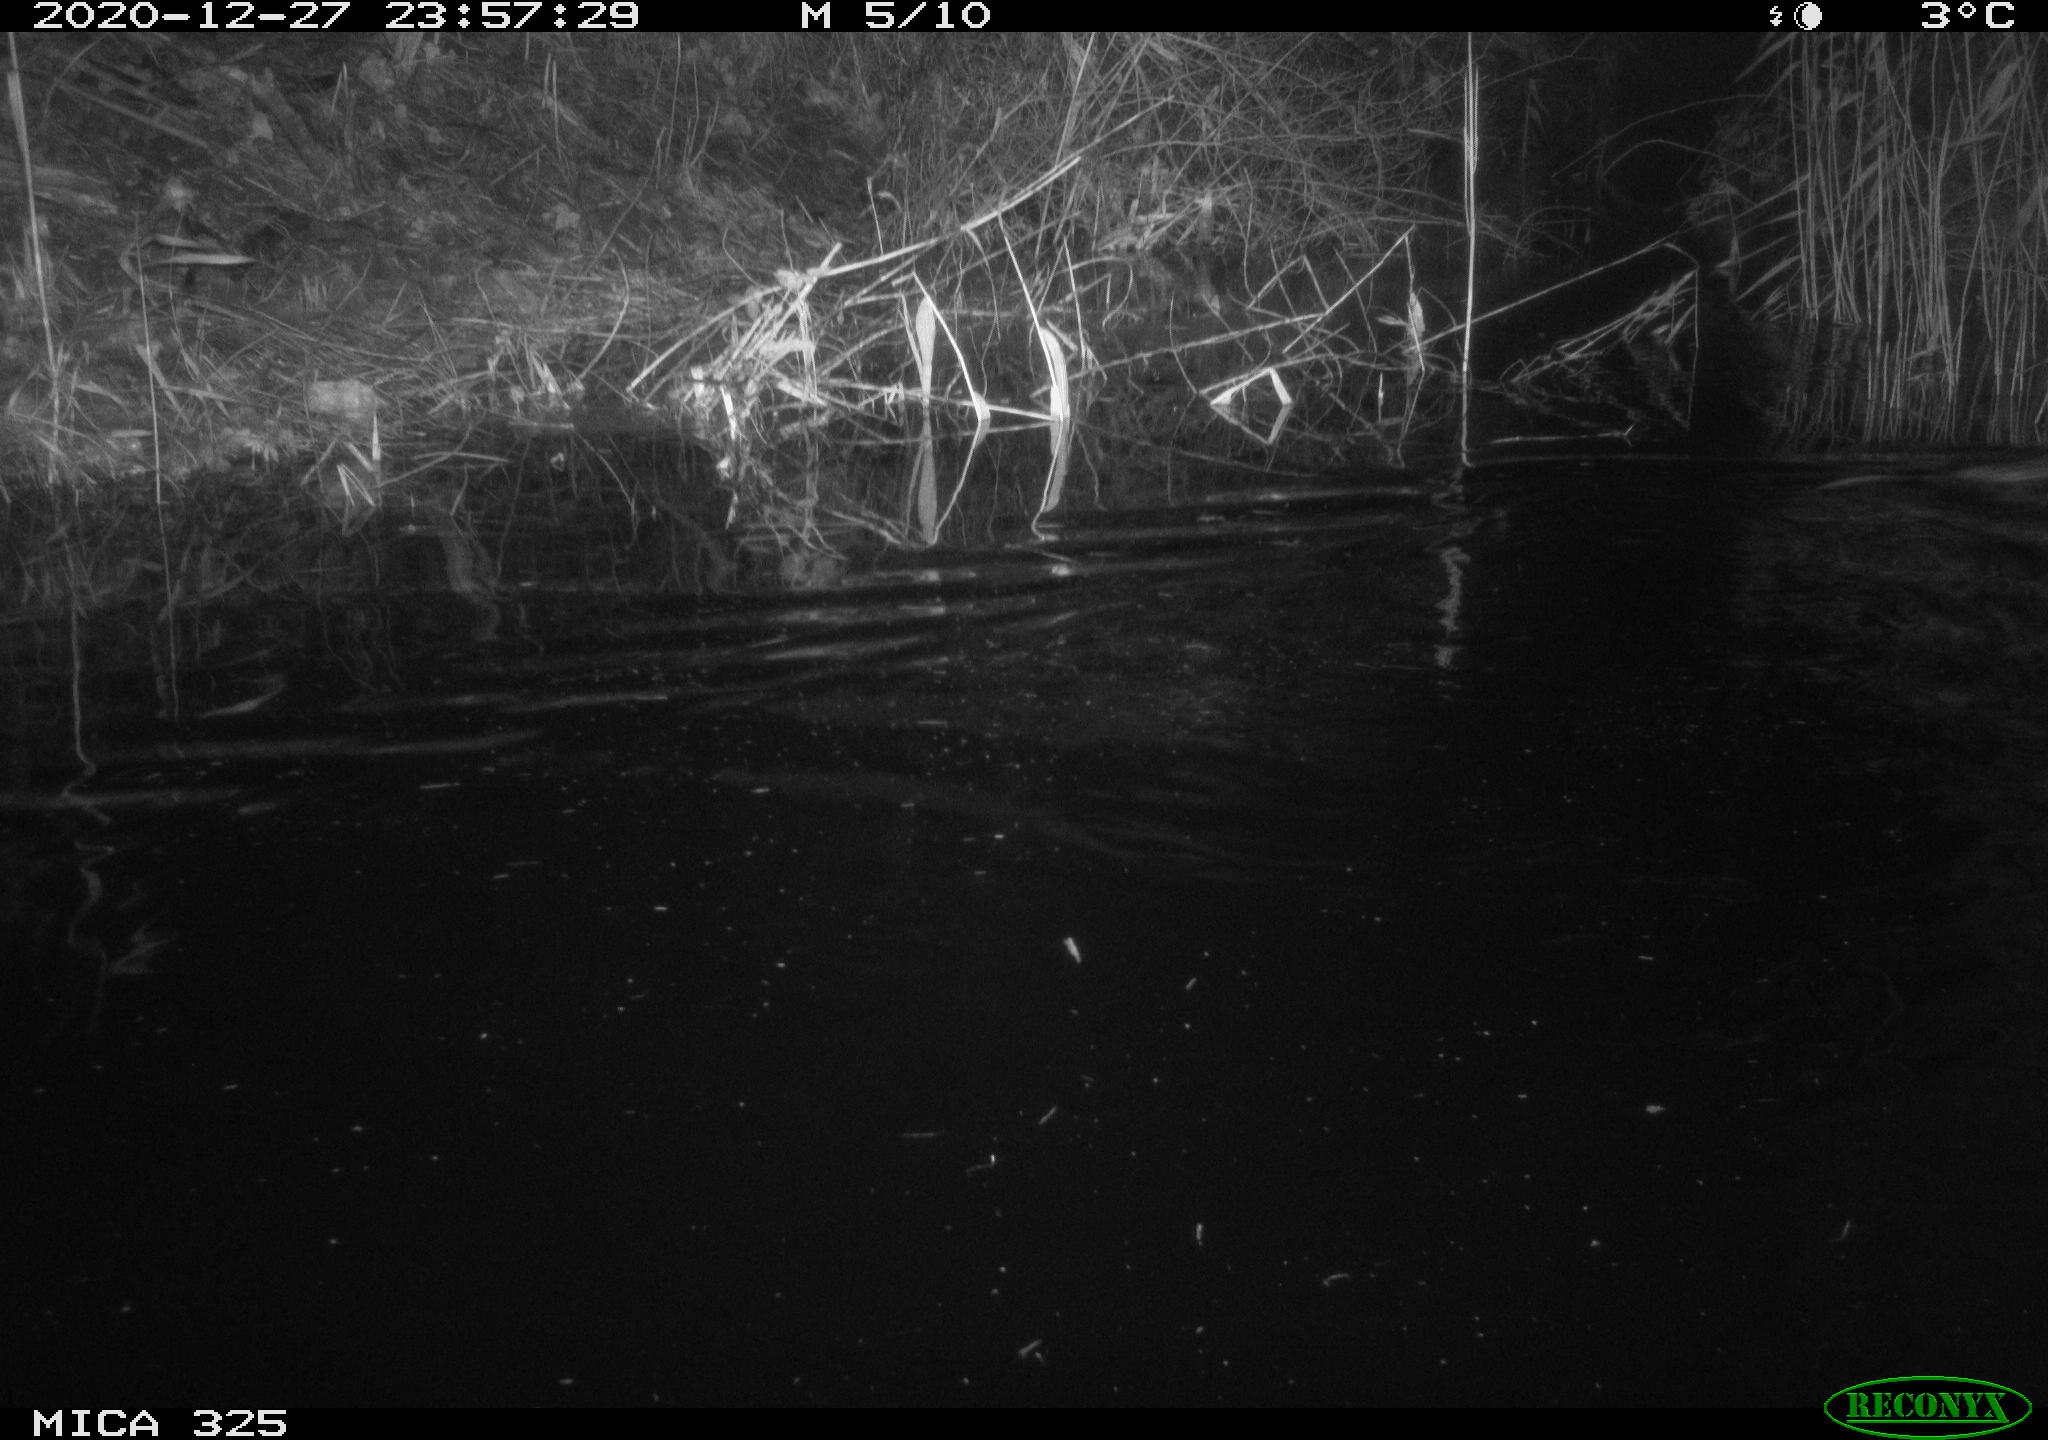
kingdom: Animalia
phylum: Chordata
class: Mammalia
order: Rodentia
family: Cricetidae
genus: Ondatra
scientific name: Ondatra zibethicus
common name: Muskrat
